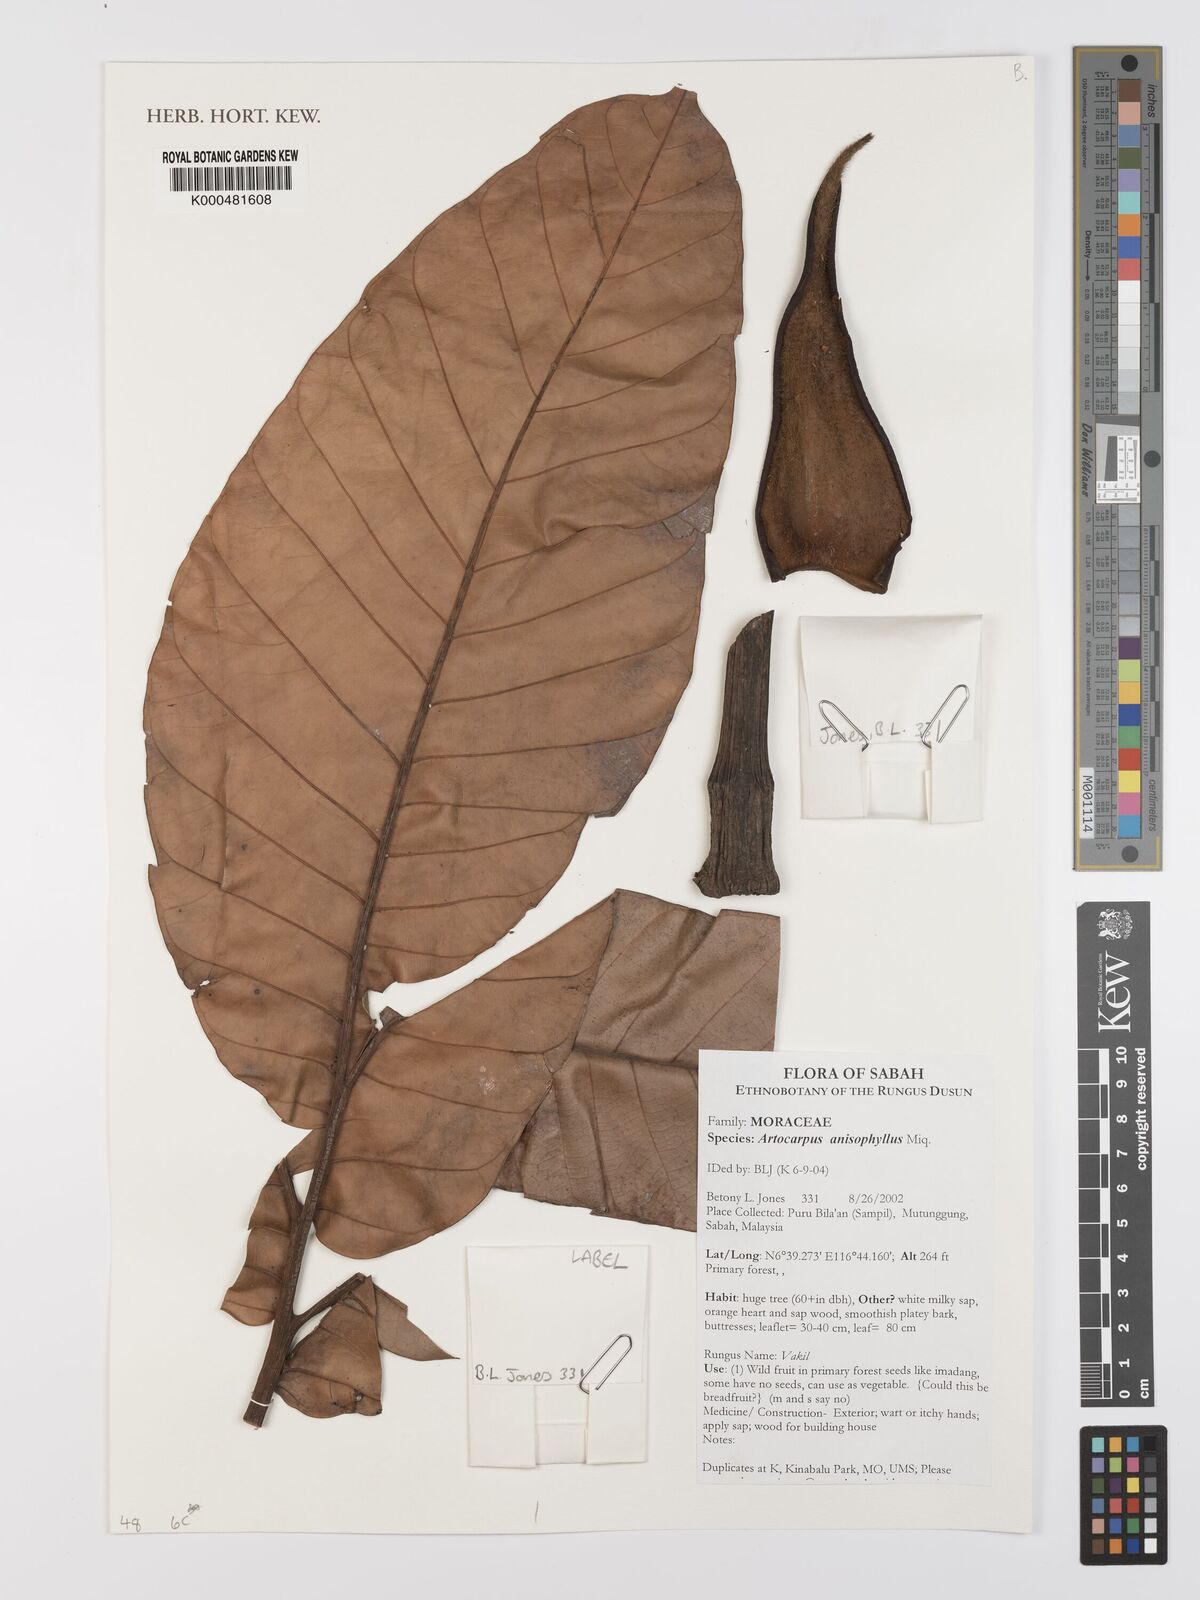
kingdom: Plantae
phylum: Tracheophyta
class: Magnoliopsida
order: Rosales
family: Moraceae
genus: Artocarpus
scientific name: Artocarpus anisophyllus
